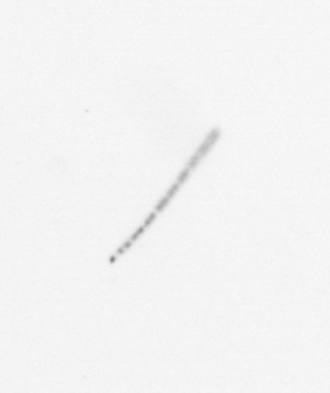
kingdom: Chromista
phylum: Ochrophyta
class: Bacillariophyceae
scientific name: Bacillariophyceae
